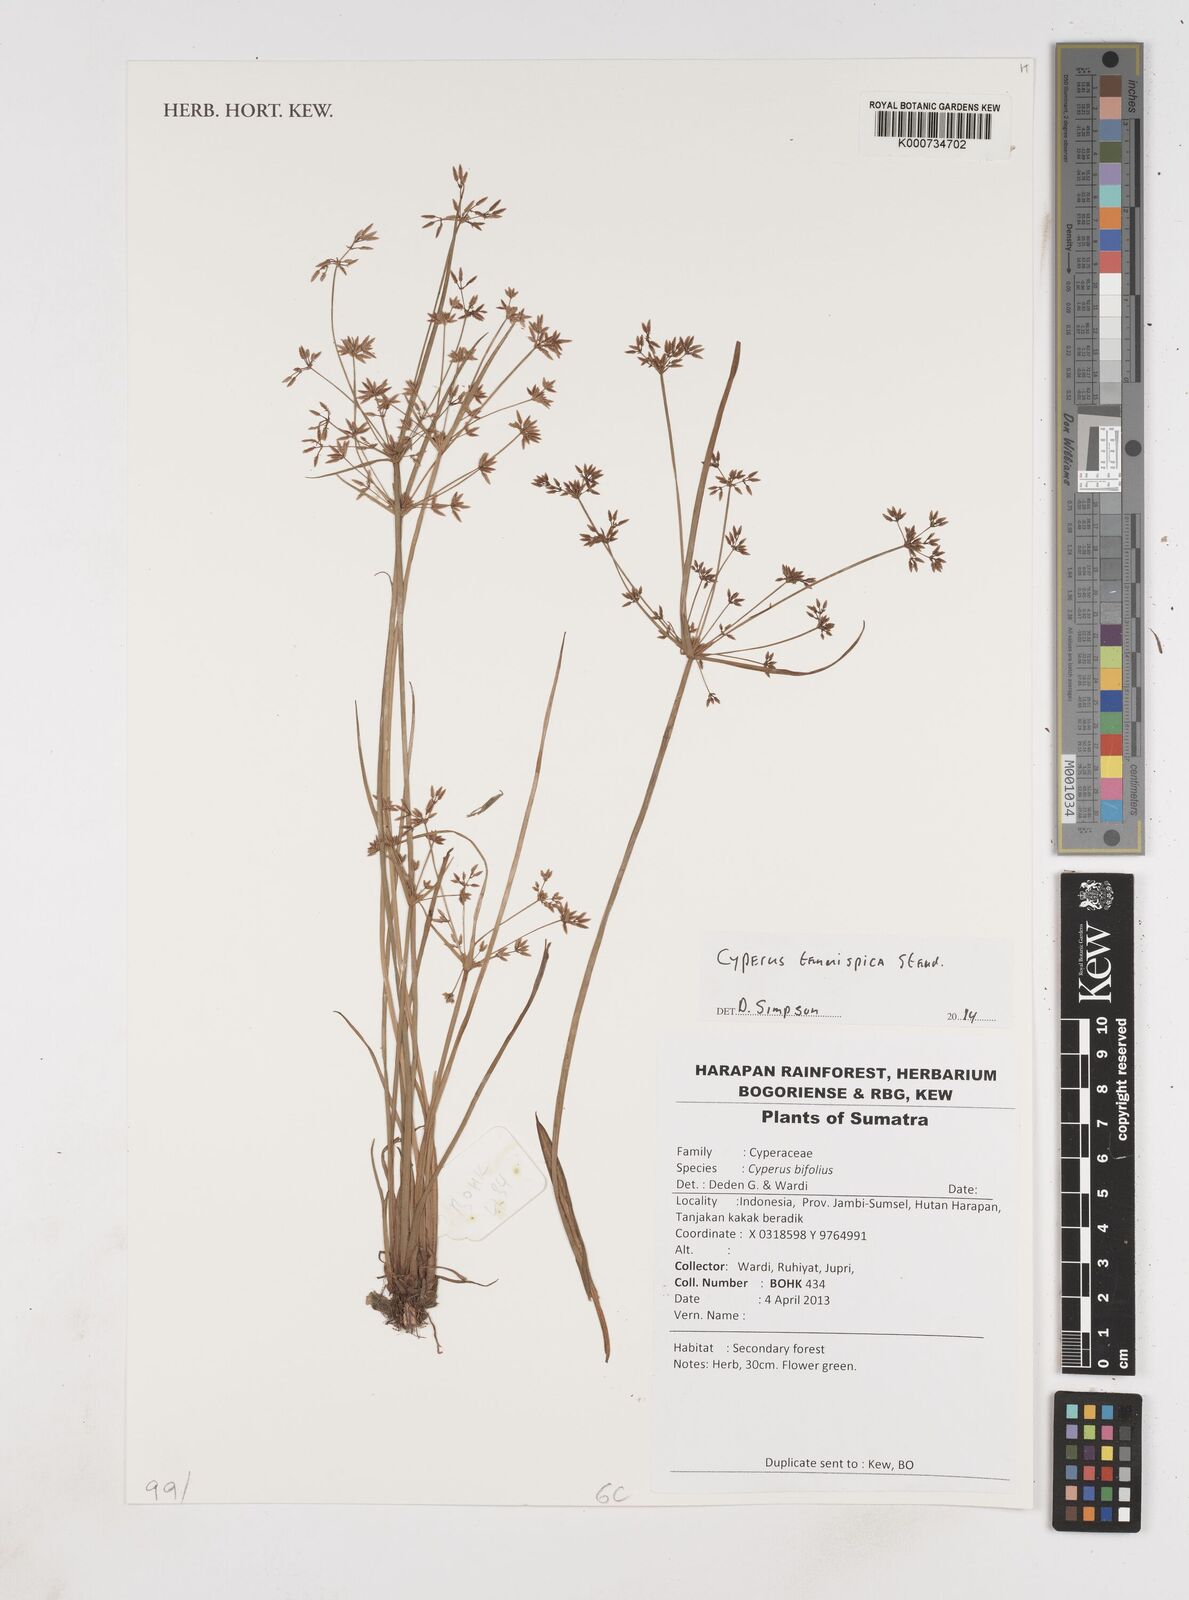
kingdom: Plantae
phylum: Tracheophyta
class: Liliopsida
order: Poales
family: Cyperaceae
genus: Cyperus
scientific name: Cyperus tenuispica
